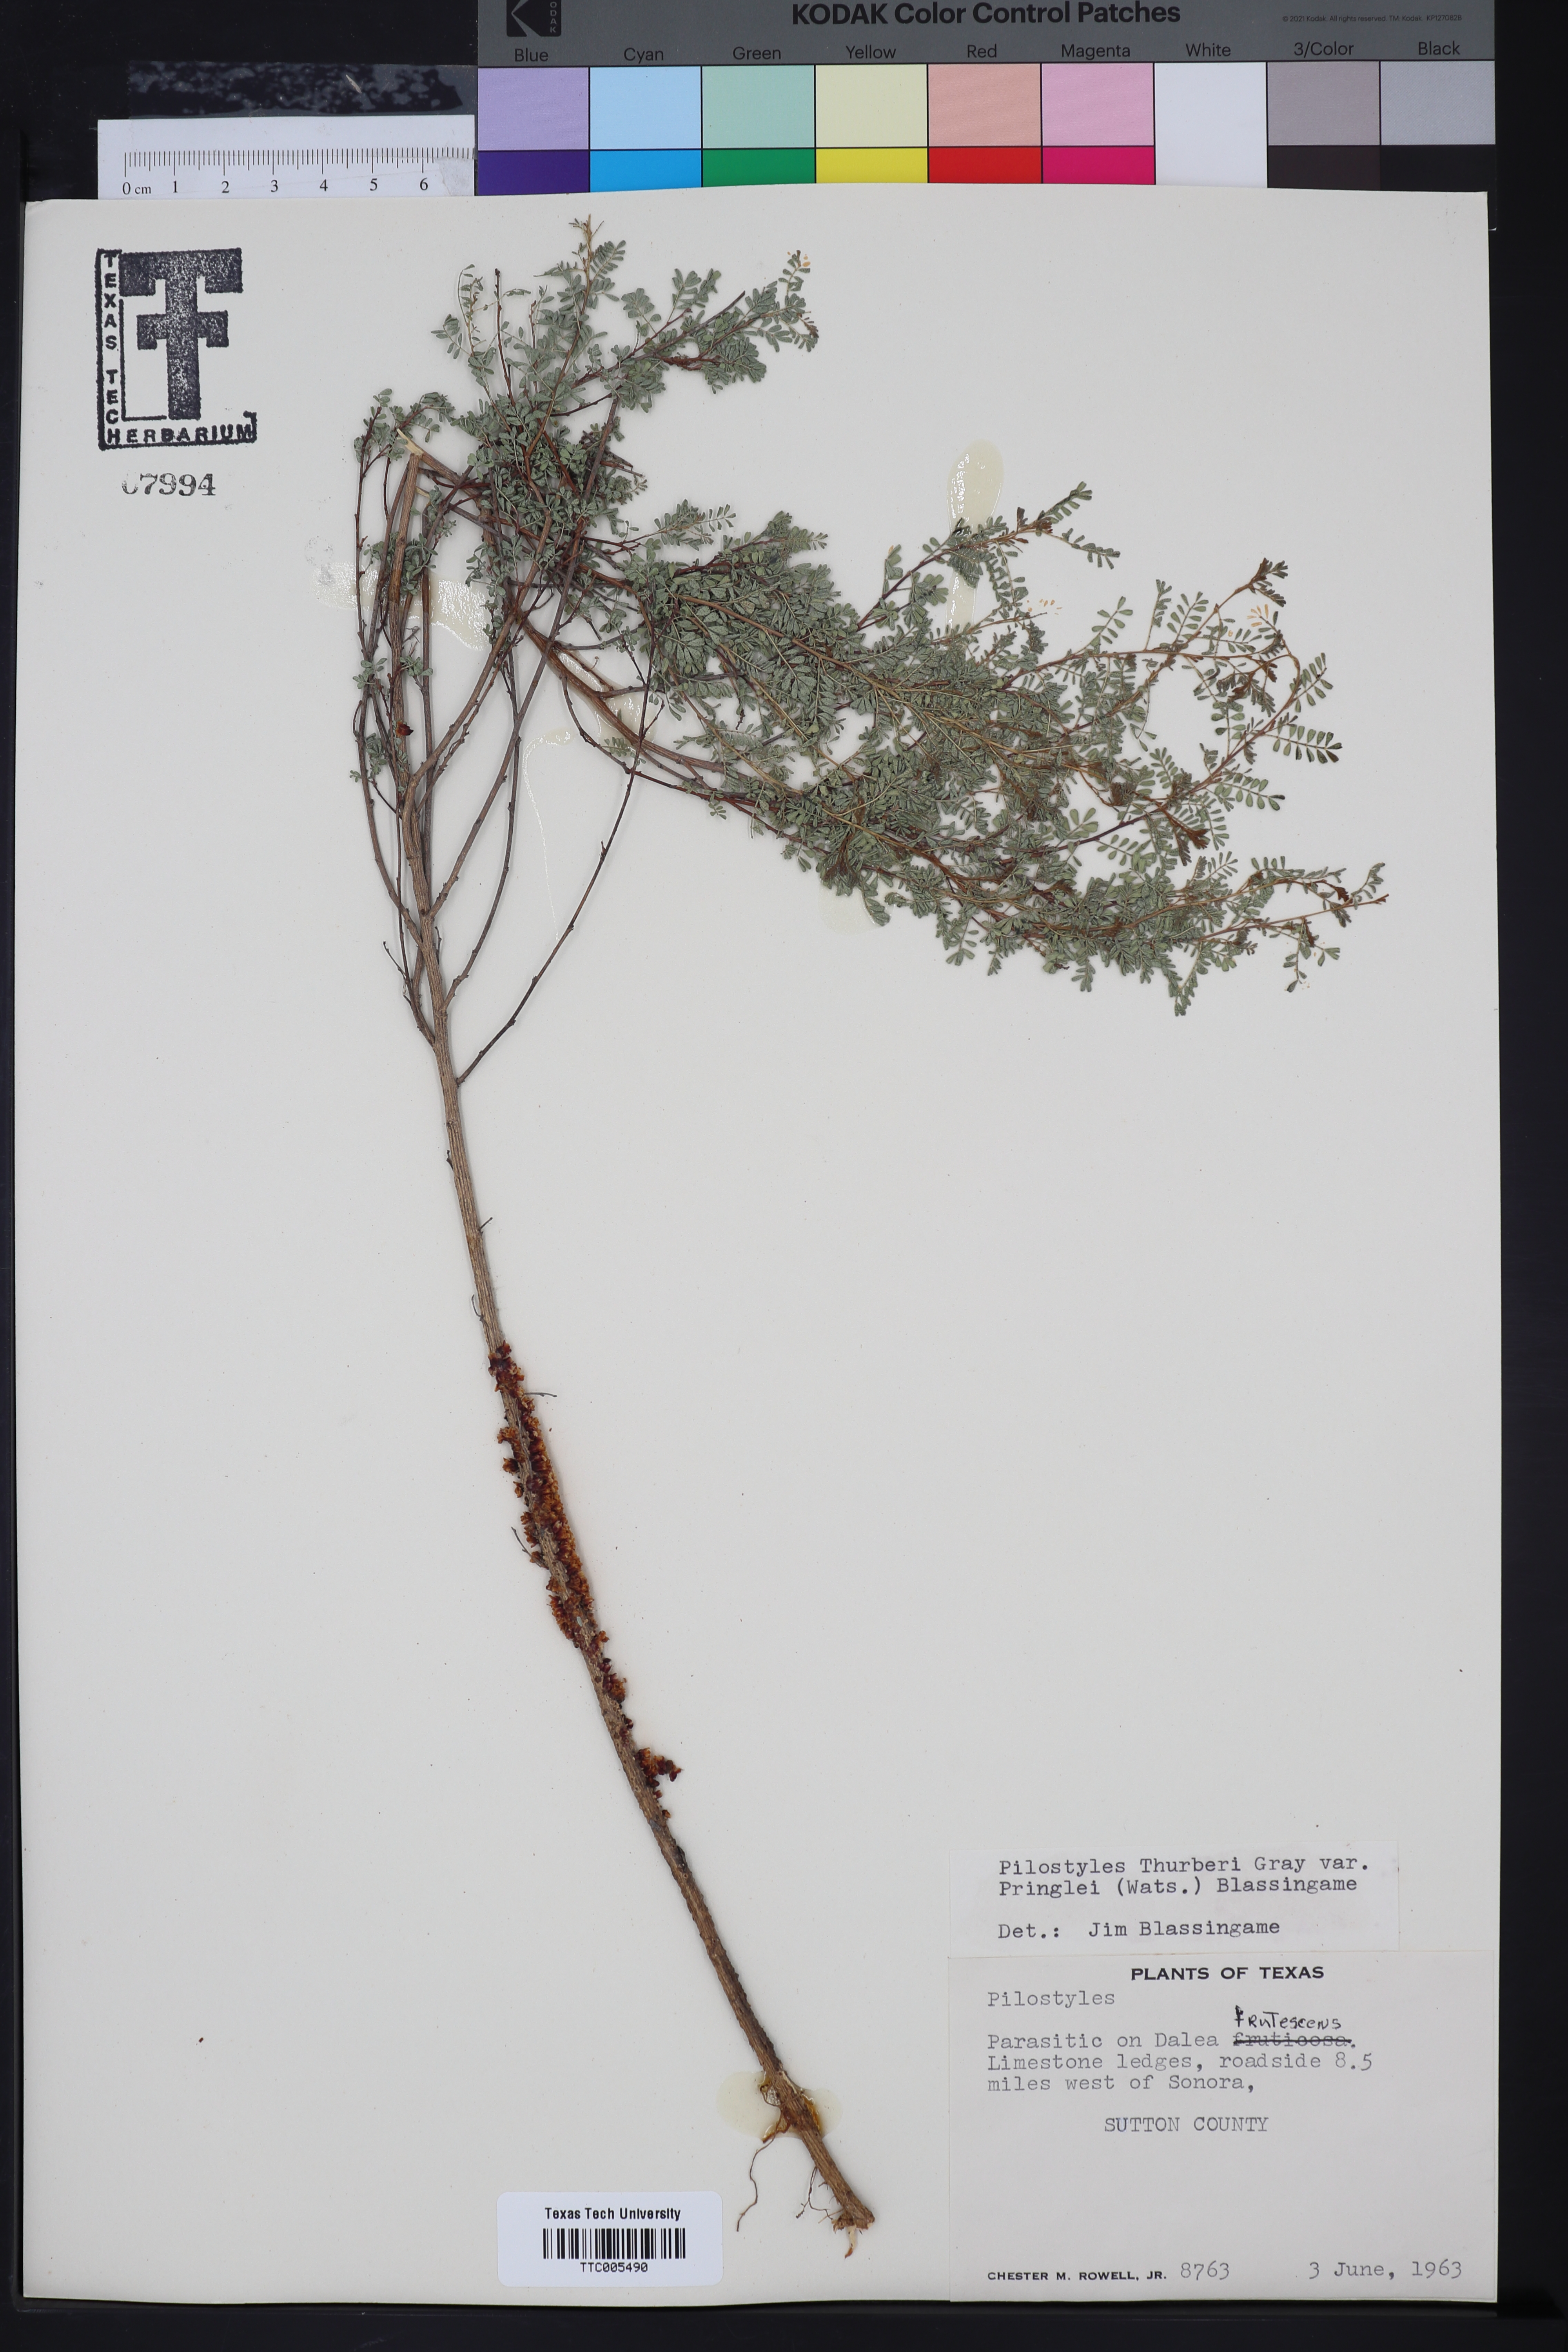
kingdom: Plantae
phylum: Tracheophyta
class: Magnoliopsida
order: Cucurbitales
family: Apodanthaceae
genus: Pilostyles
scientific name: Pilostyles
